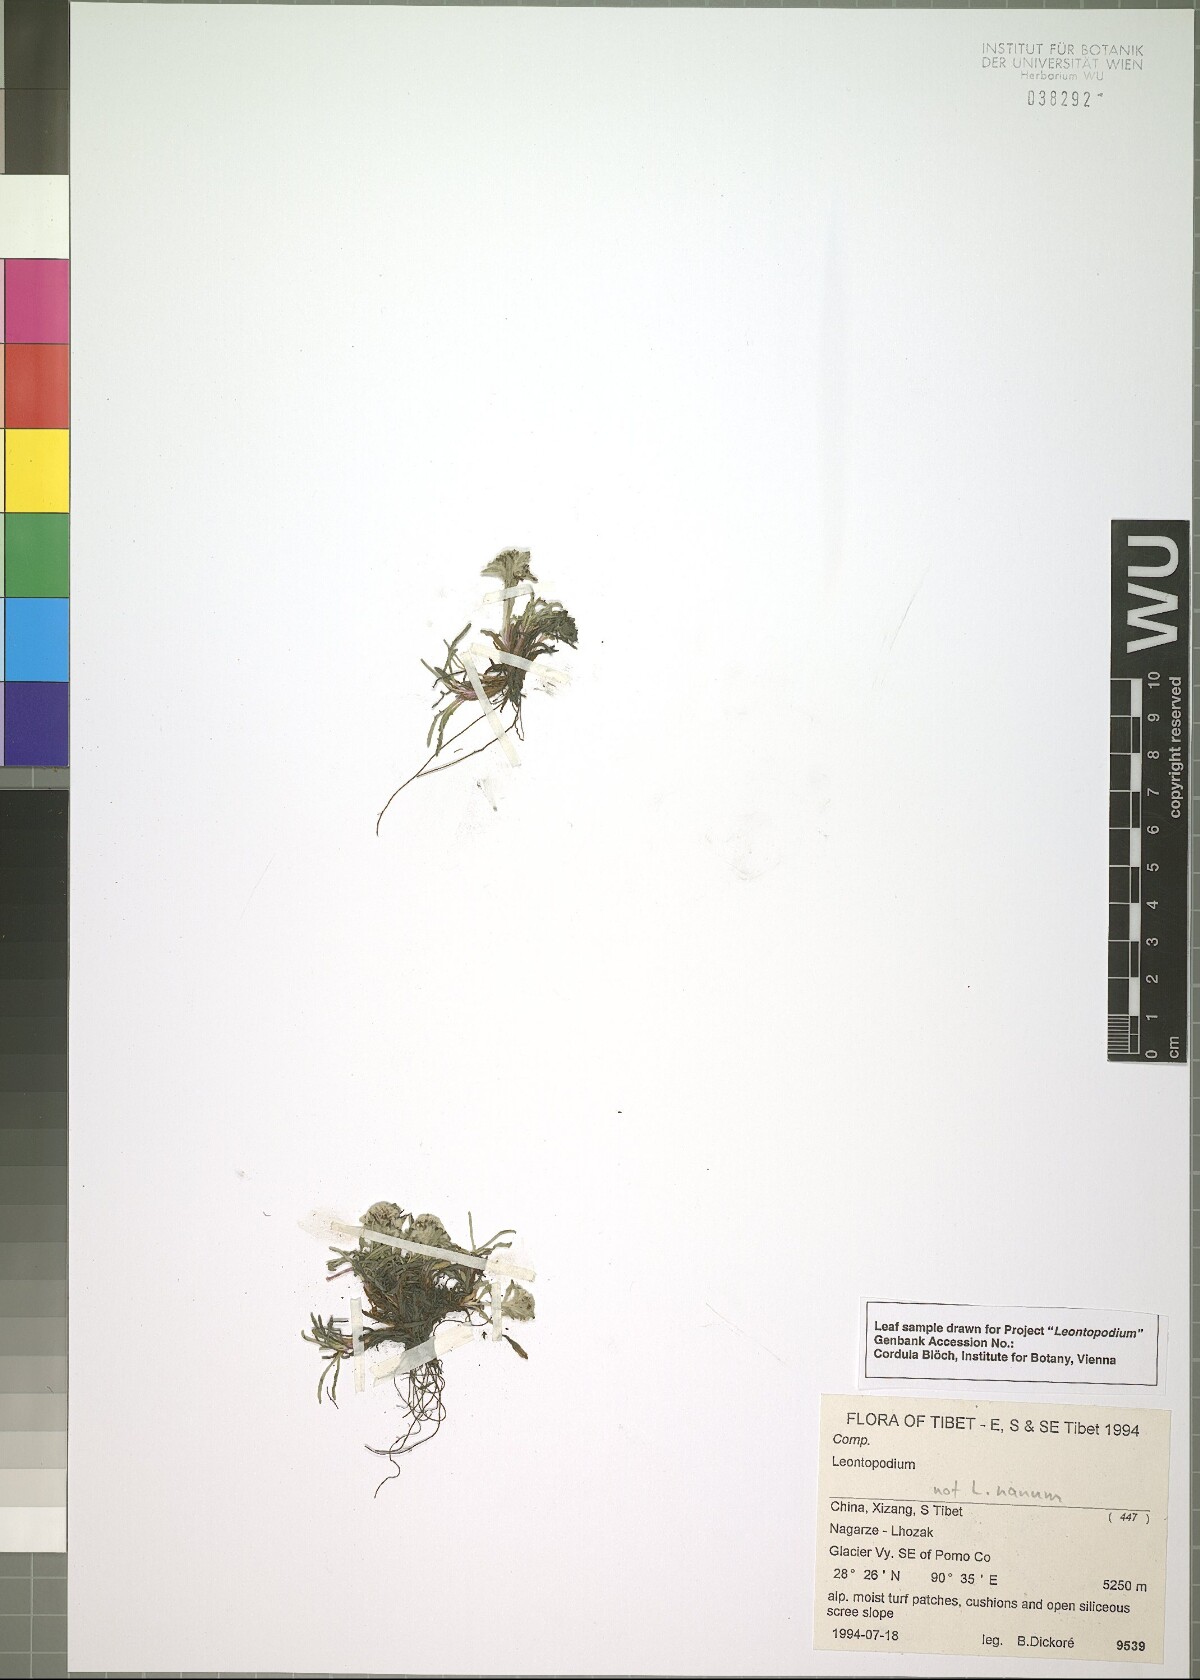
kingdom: Plantae
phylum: Tracheophyta
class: Magnoliopsida
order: Asterales
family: Asteraceae
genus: Leontopodium
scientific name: Leontopodium
